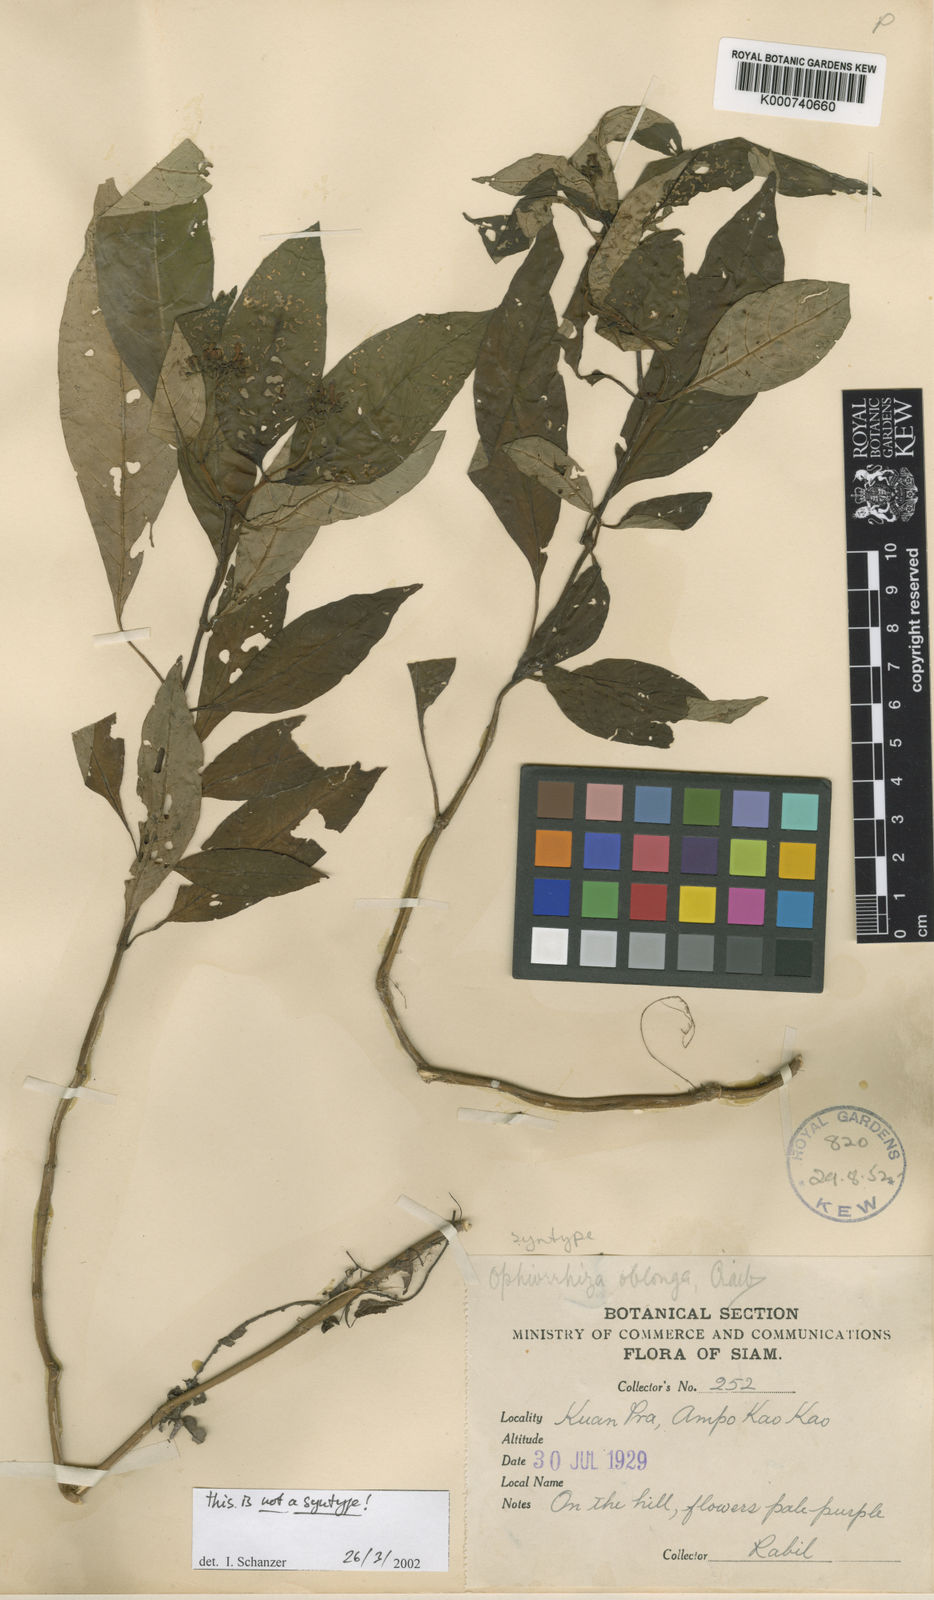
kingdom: Plantae
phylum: Tracheophyta
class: Magnoliopsida
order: Gentianales
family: Rubiaceae
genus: Ophiorrhiza
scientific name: Ophiorrhiza oblonga
